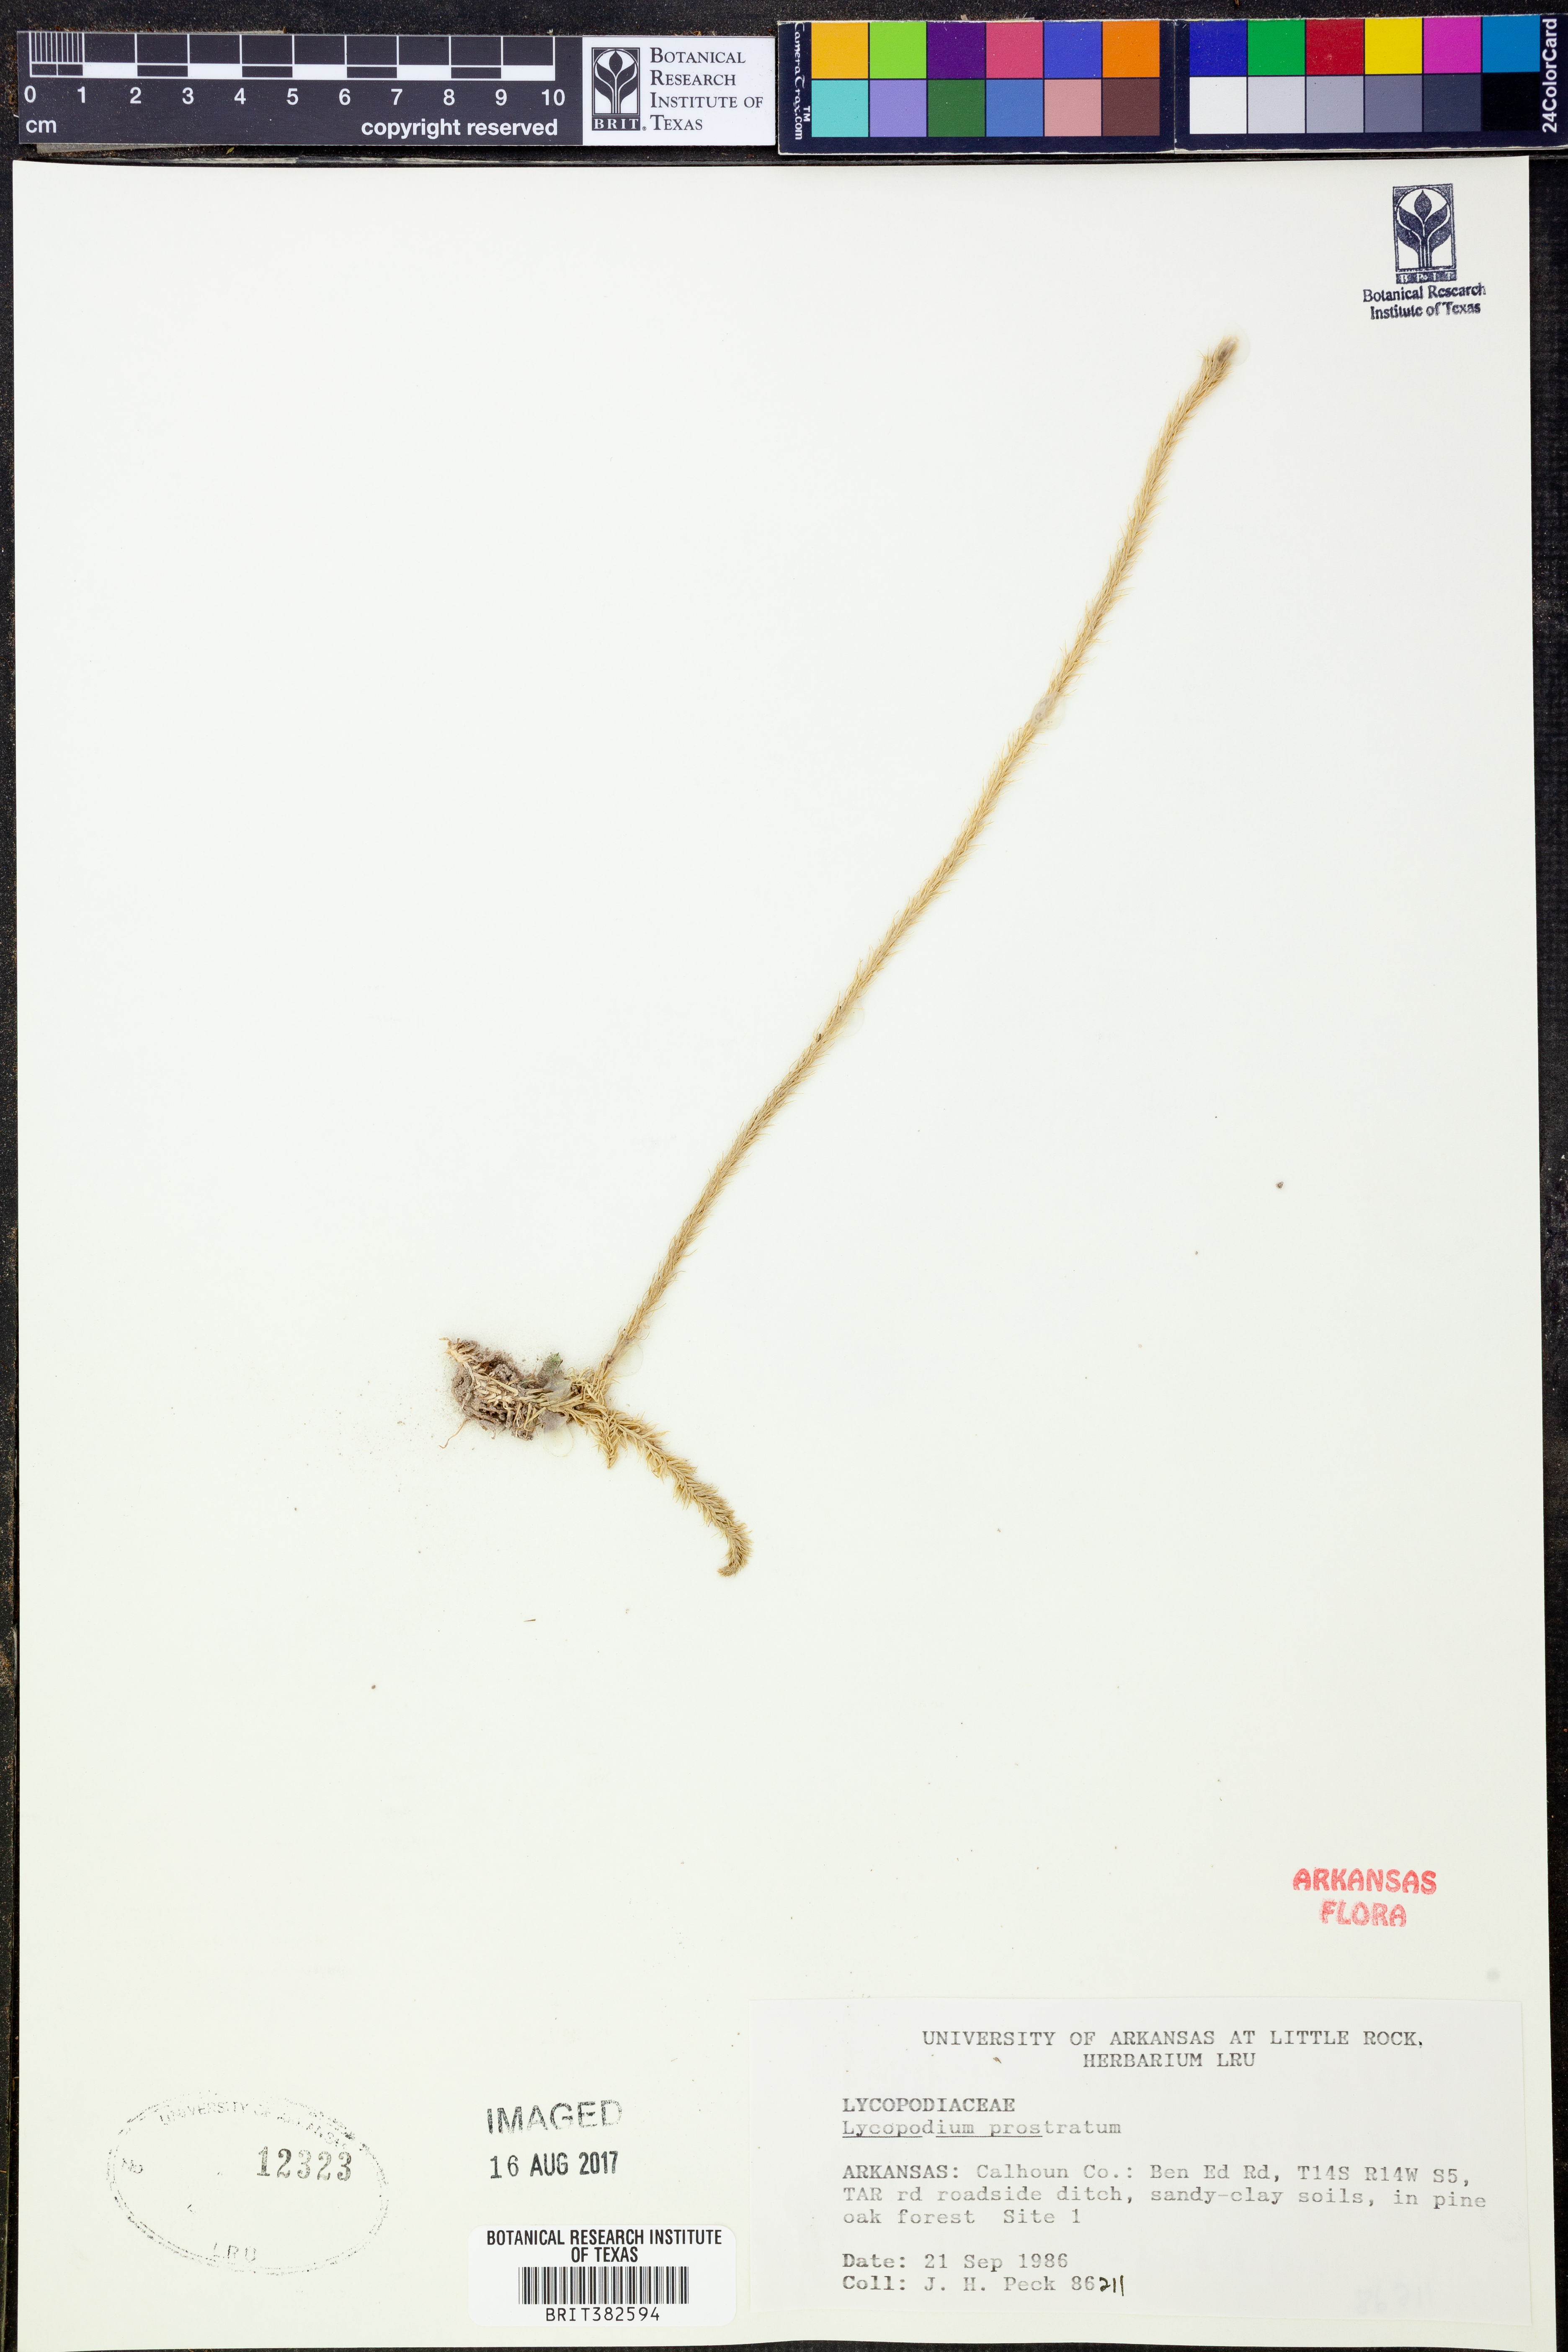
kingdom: Plantae
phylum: Tracheophyta
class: Lycopodiopsida
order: Lycopodiales
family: Lycopodiaceae
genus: Lycopodiella
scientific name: Lycopodiella prostrata
